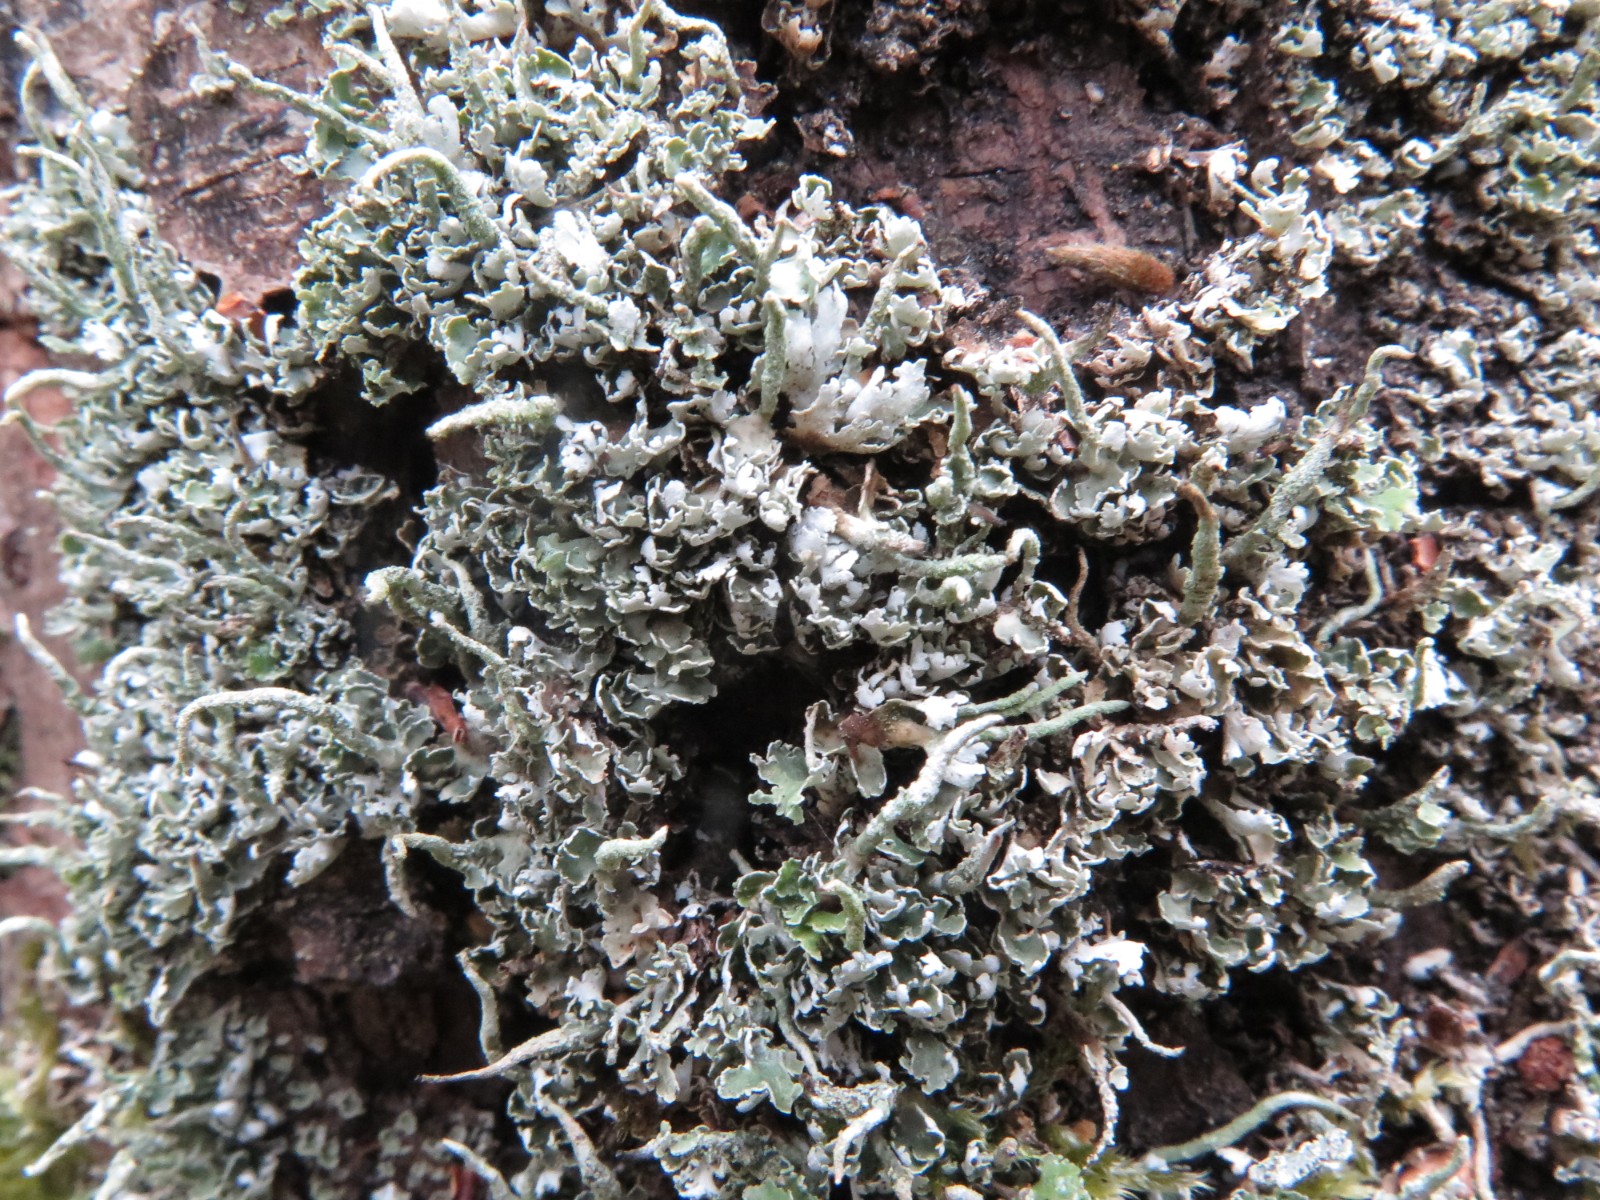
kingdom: Fungi
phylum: Ascomycota
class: Lecanoromycetes
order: Lecanorales
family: Cladoniaceae
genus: Cladonia
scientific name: Cladonia coniocraea
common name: træfods-bægerlav
